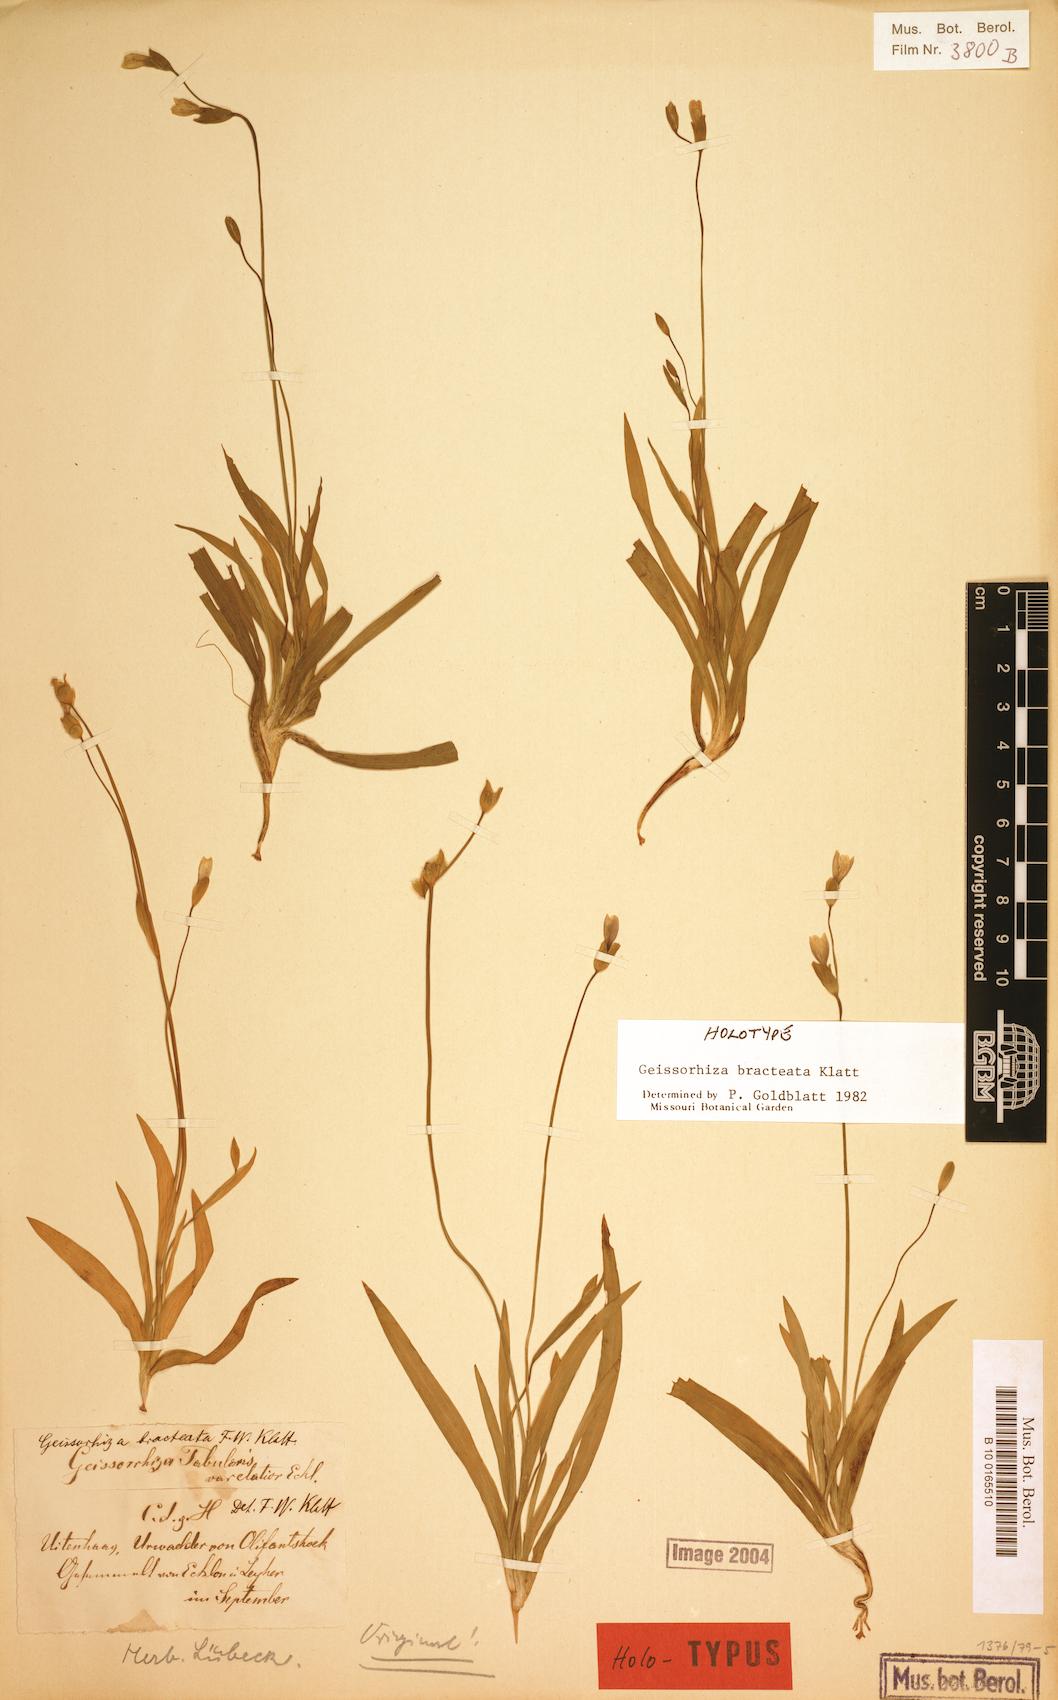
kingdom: Plantae
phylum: Tracheophyta
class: Liliopsida
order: Asparagales
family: Iridaceae
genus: Geissorhiza
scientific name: Geissorhiza bracteata
